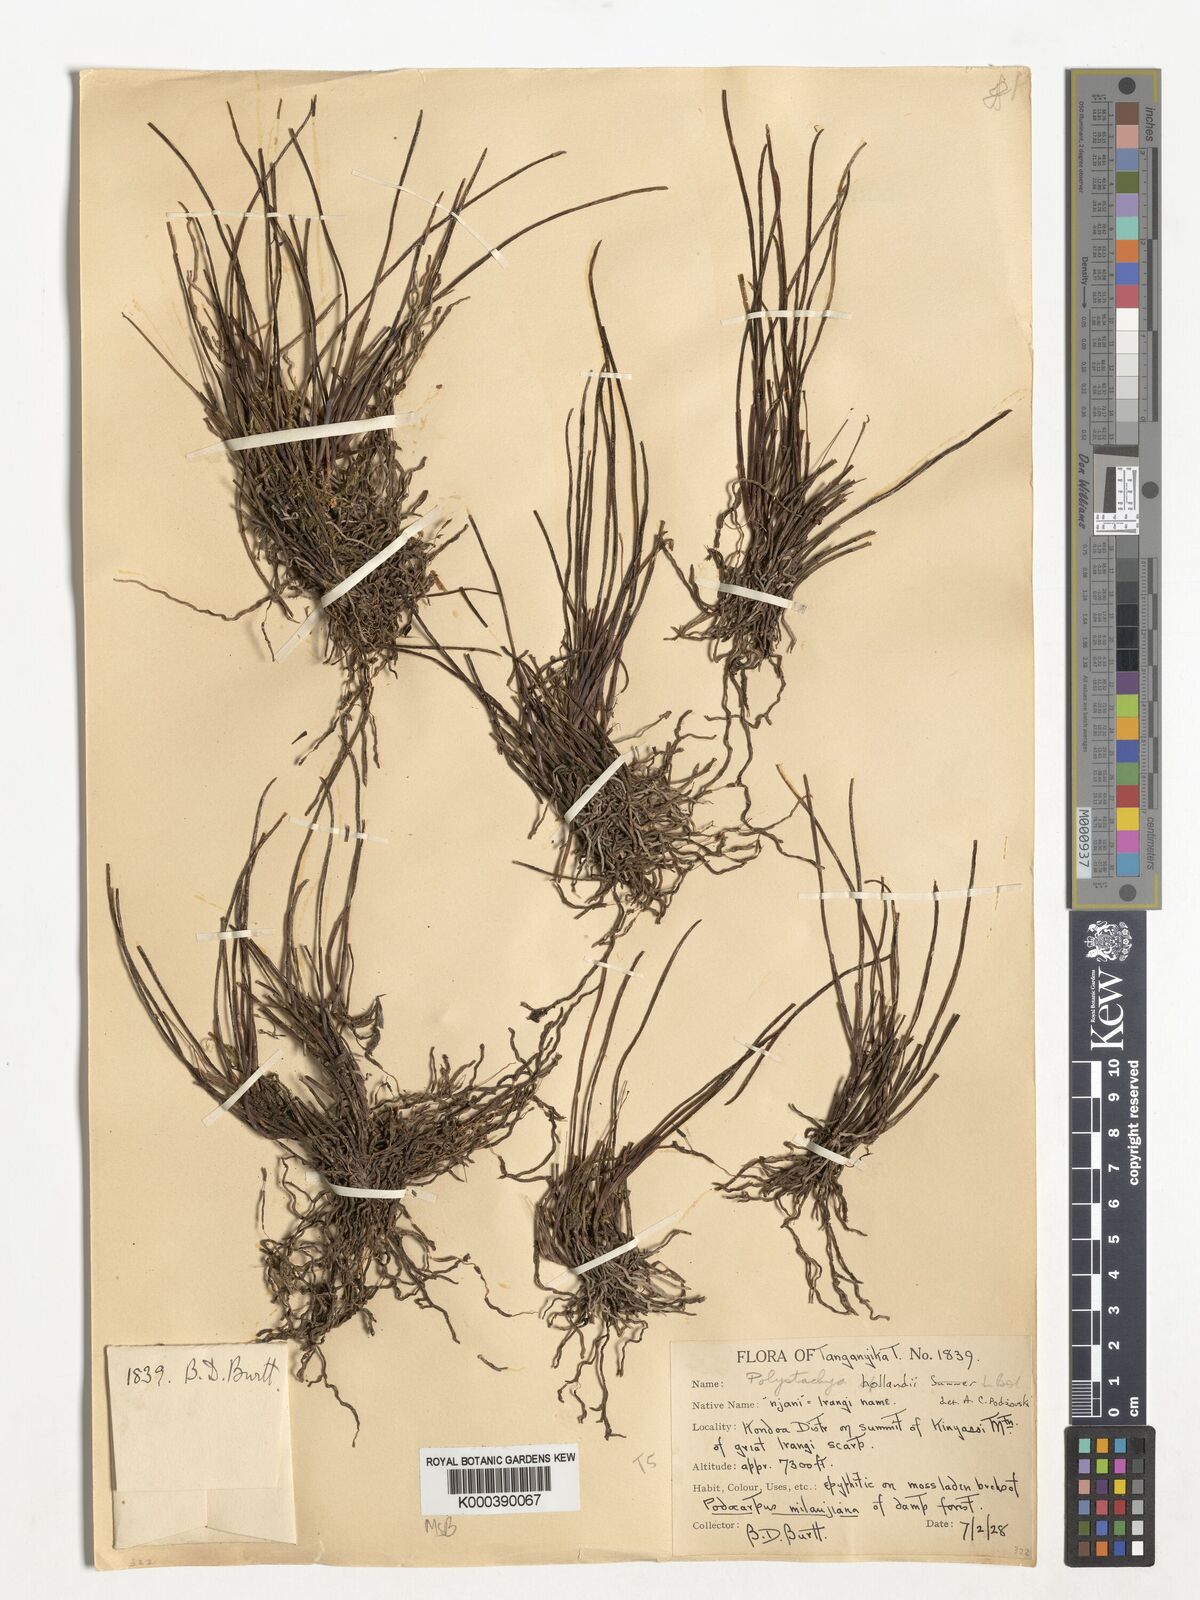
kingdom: Plantae
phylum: Tracheophyta
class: Liliopsida
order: Asparagales
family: Orchidaceae
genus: Polystachya
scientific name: Polystachya caespitifica
